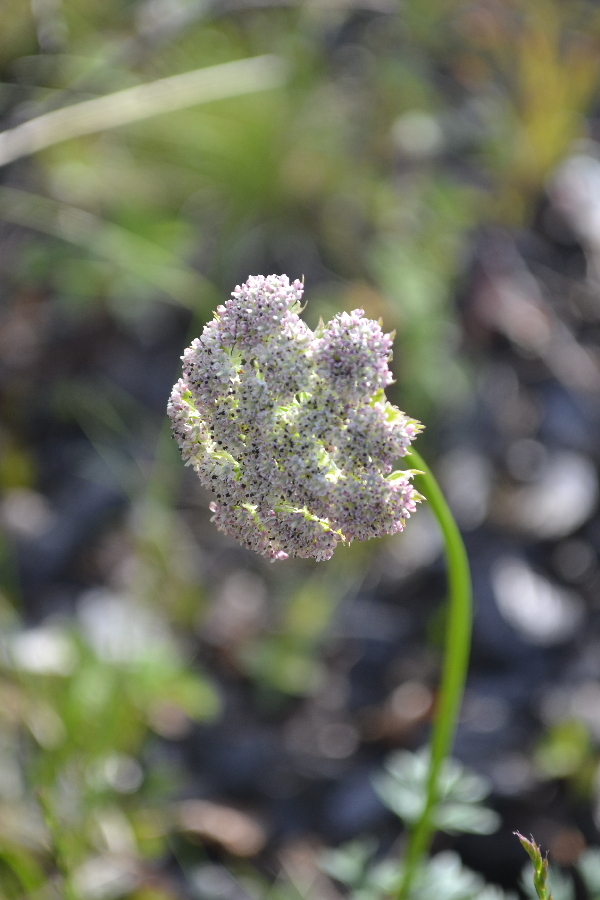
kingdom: Plantae
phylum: Tracheophyta
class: Magnoliopsida
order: Apiales
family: Apiaceae
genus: Pachypleurum
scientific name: Pachypleurum mutellinoides
